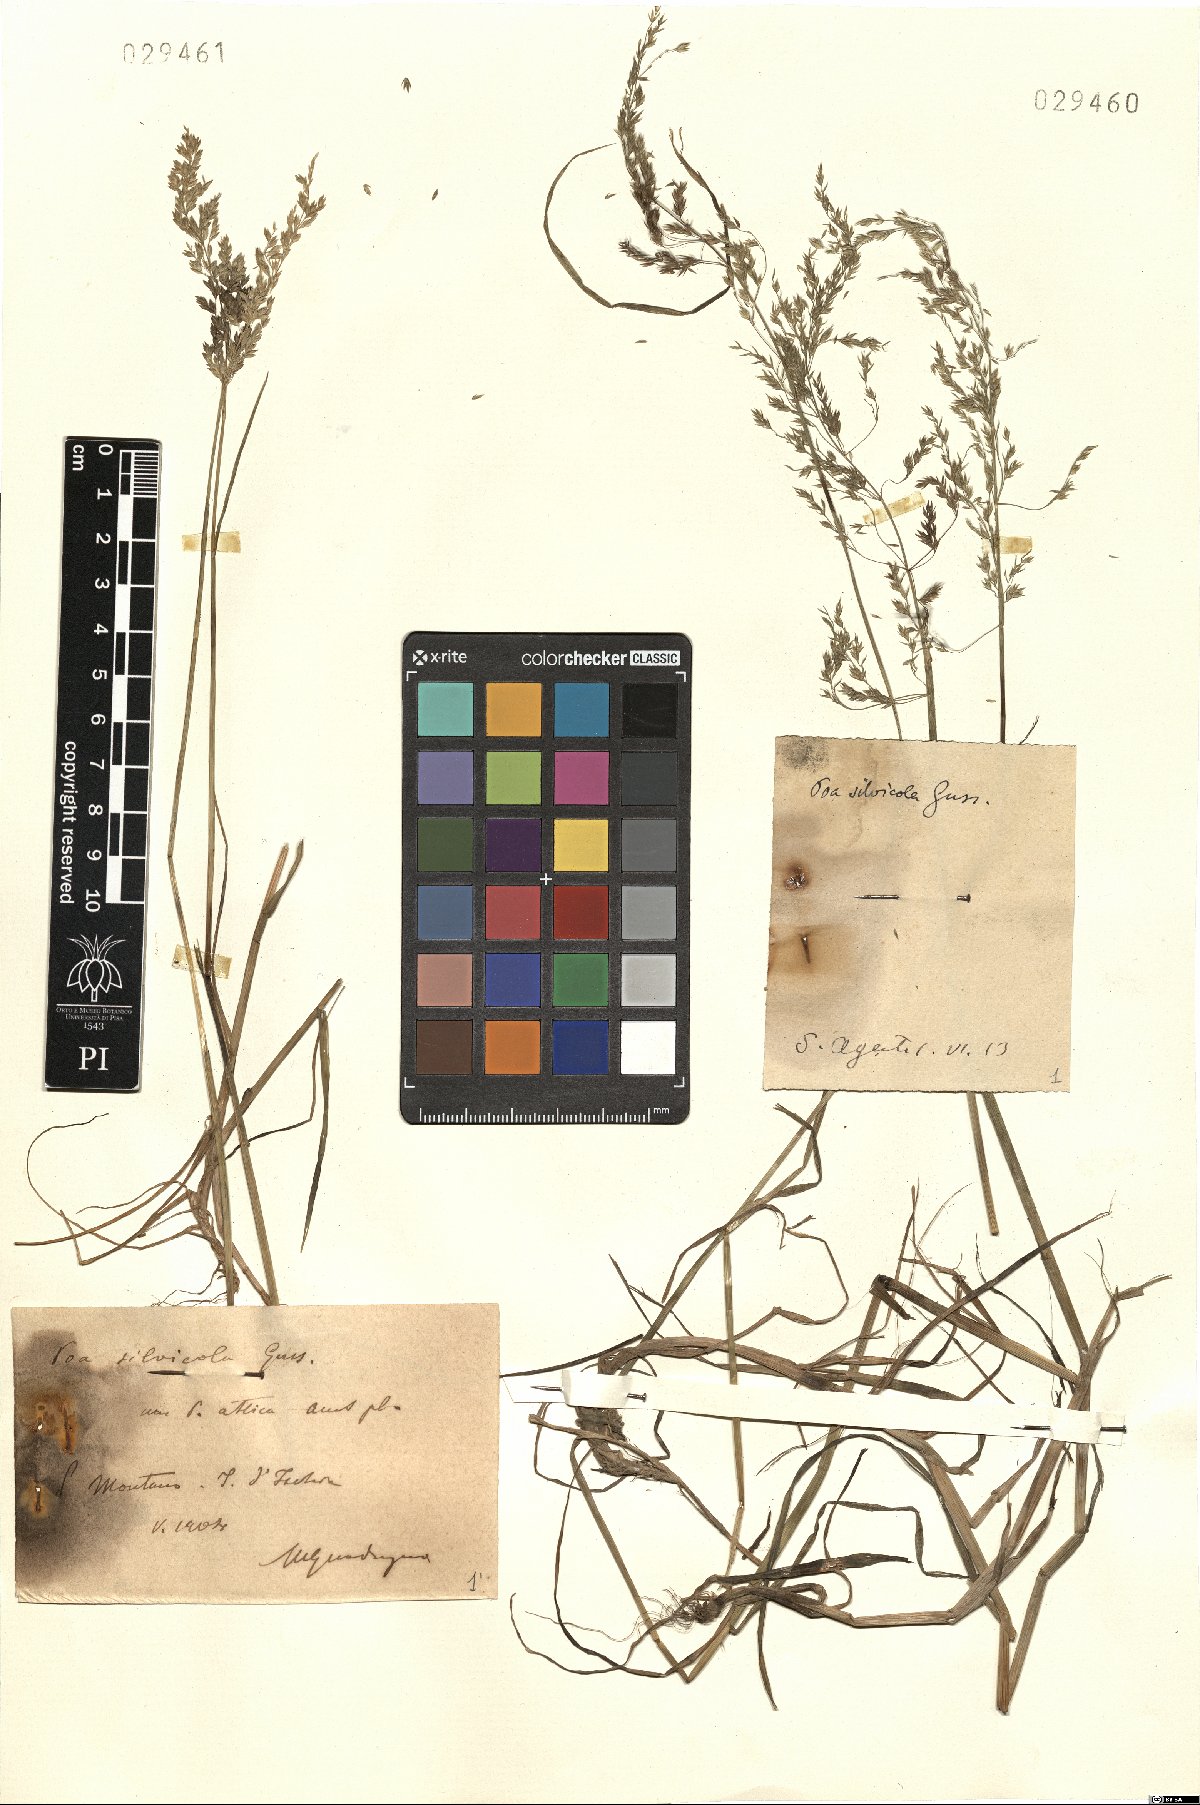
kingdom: Plantae
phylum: Tracheophyta
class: Liliopsida
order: Poales
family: Poaceae
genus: Poa
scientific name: Poa trivialis
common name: Rough bluegrass
